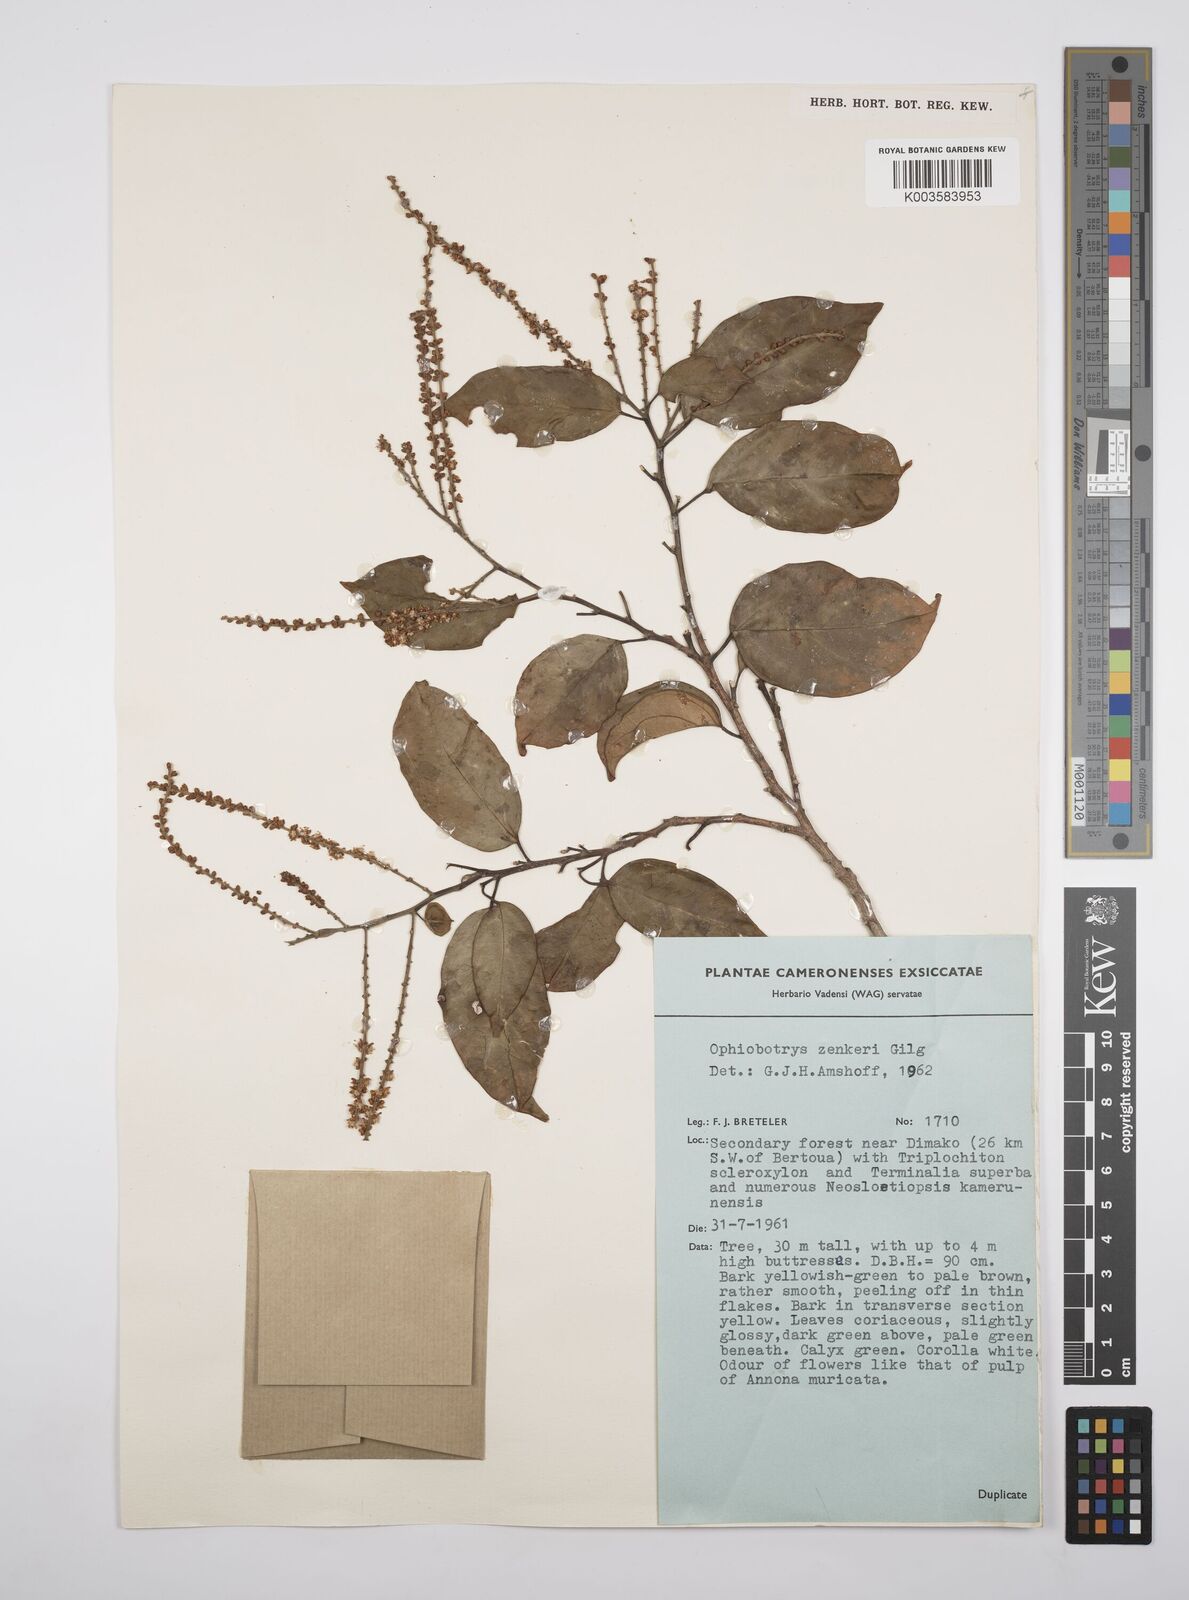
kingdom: Plantae
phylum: Tracheophyta
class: Magnoliopsida
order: Malpighiales
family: Salicaceae
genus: Ophiobotrys
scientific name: Ophiobotrys zenkeri
